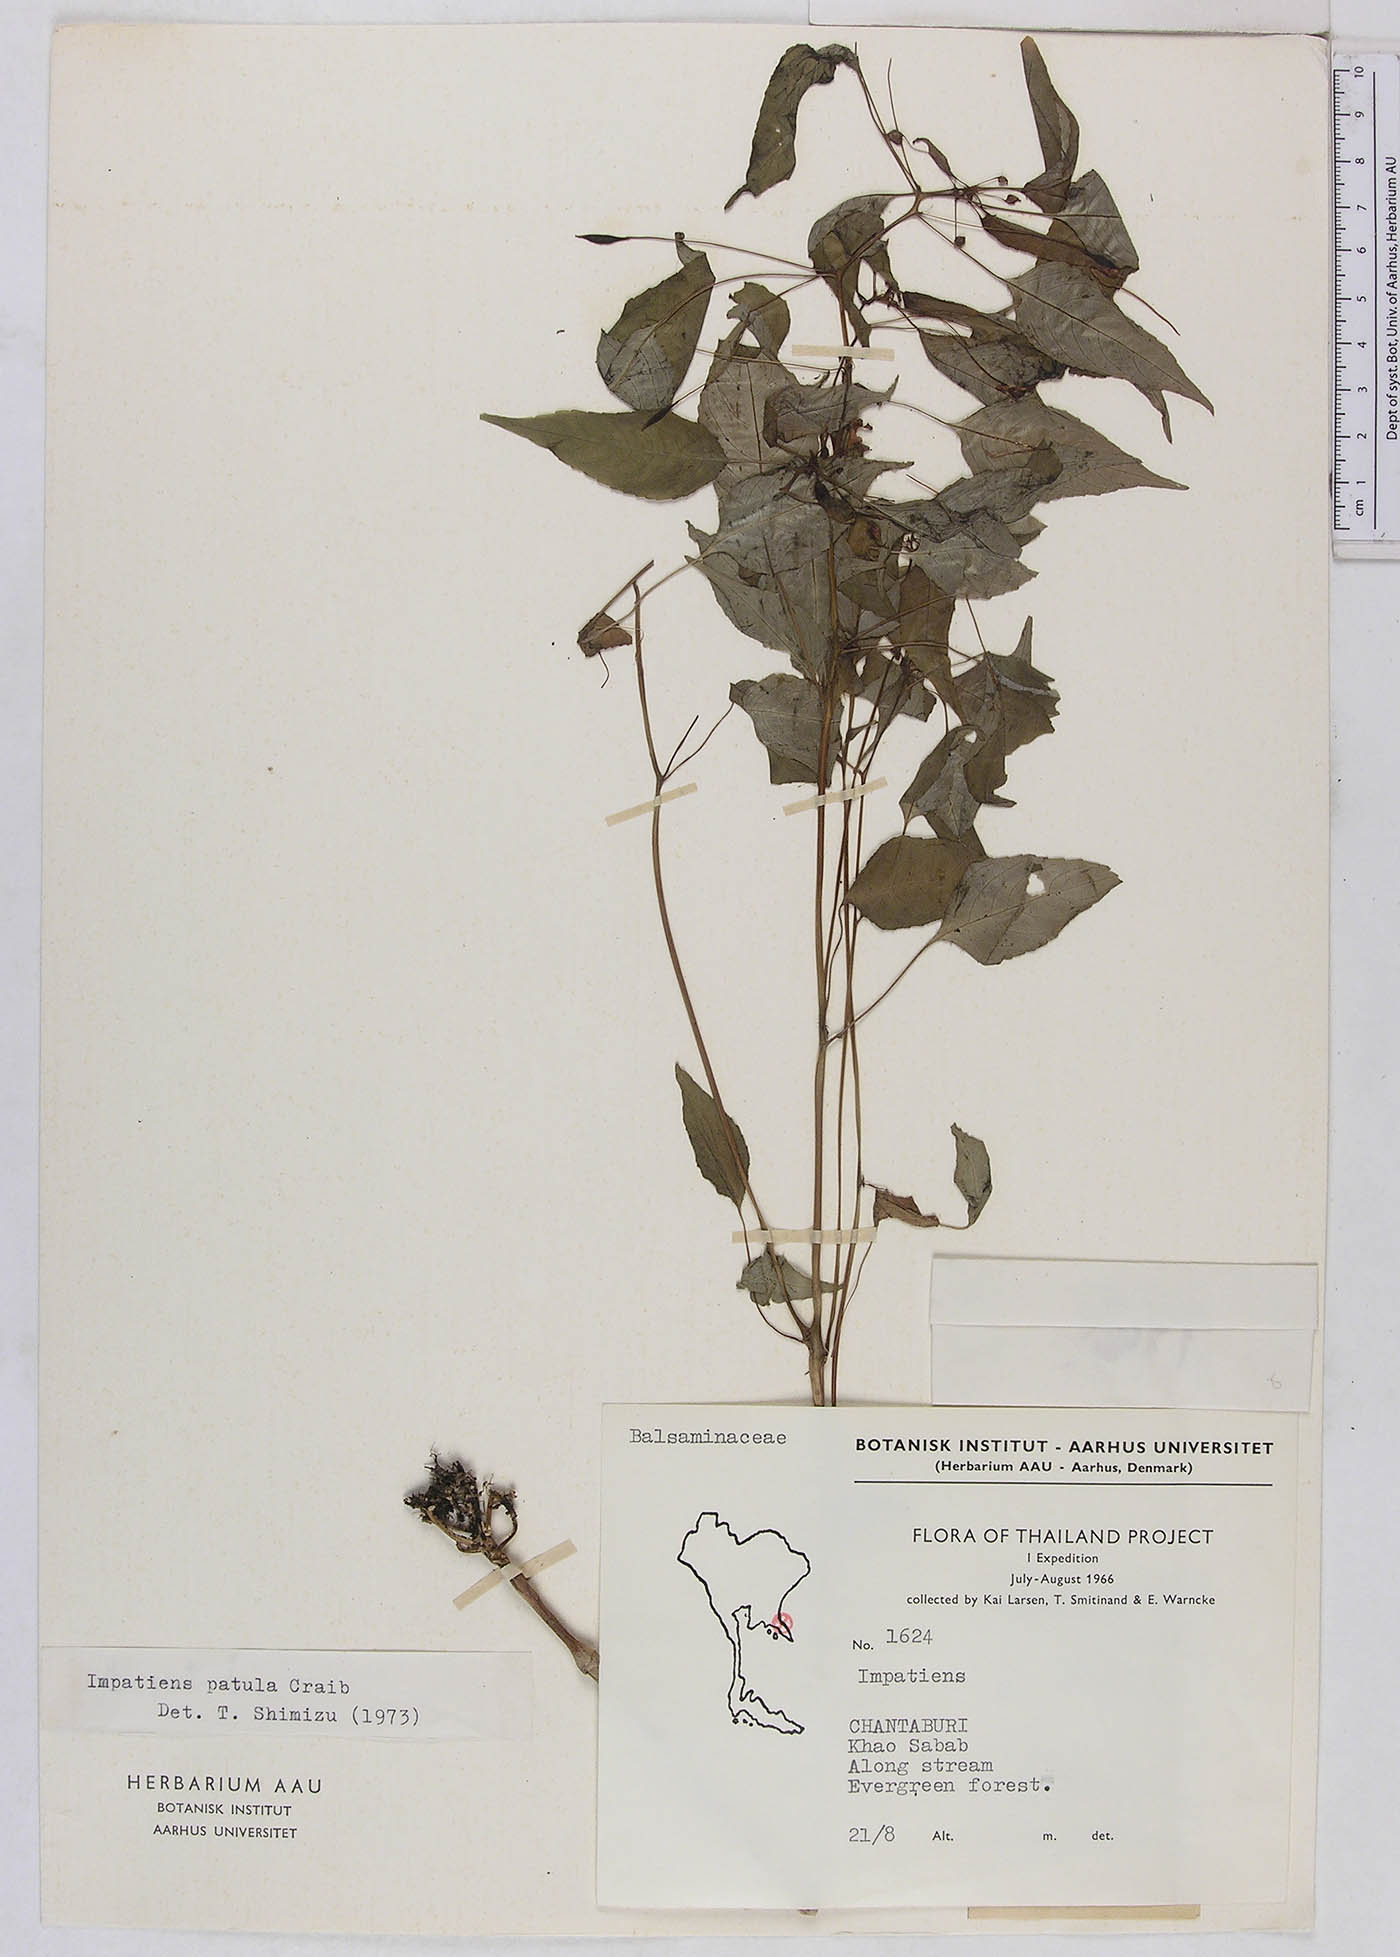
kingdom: Plantae
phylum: Tracheophyta
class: Magnoliopsida
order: Ericales
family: Balsaminaceae
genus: Impatiens
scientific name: Impatiens saxicola
